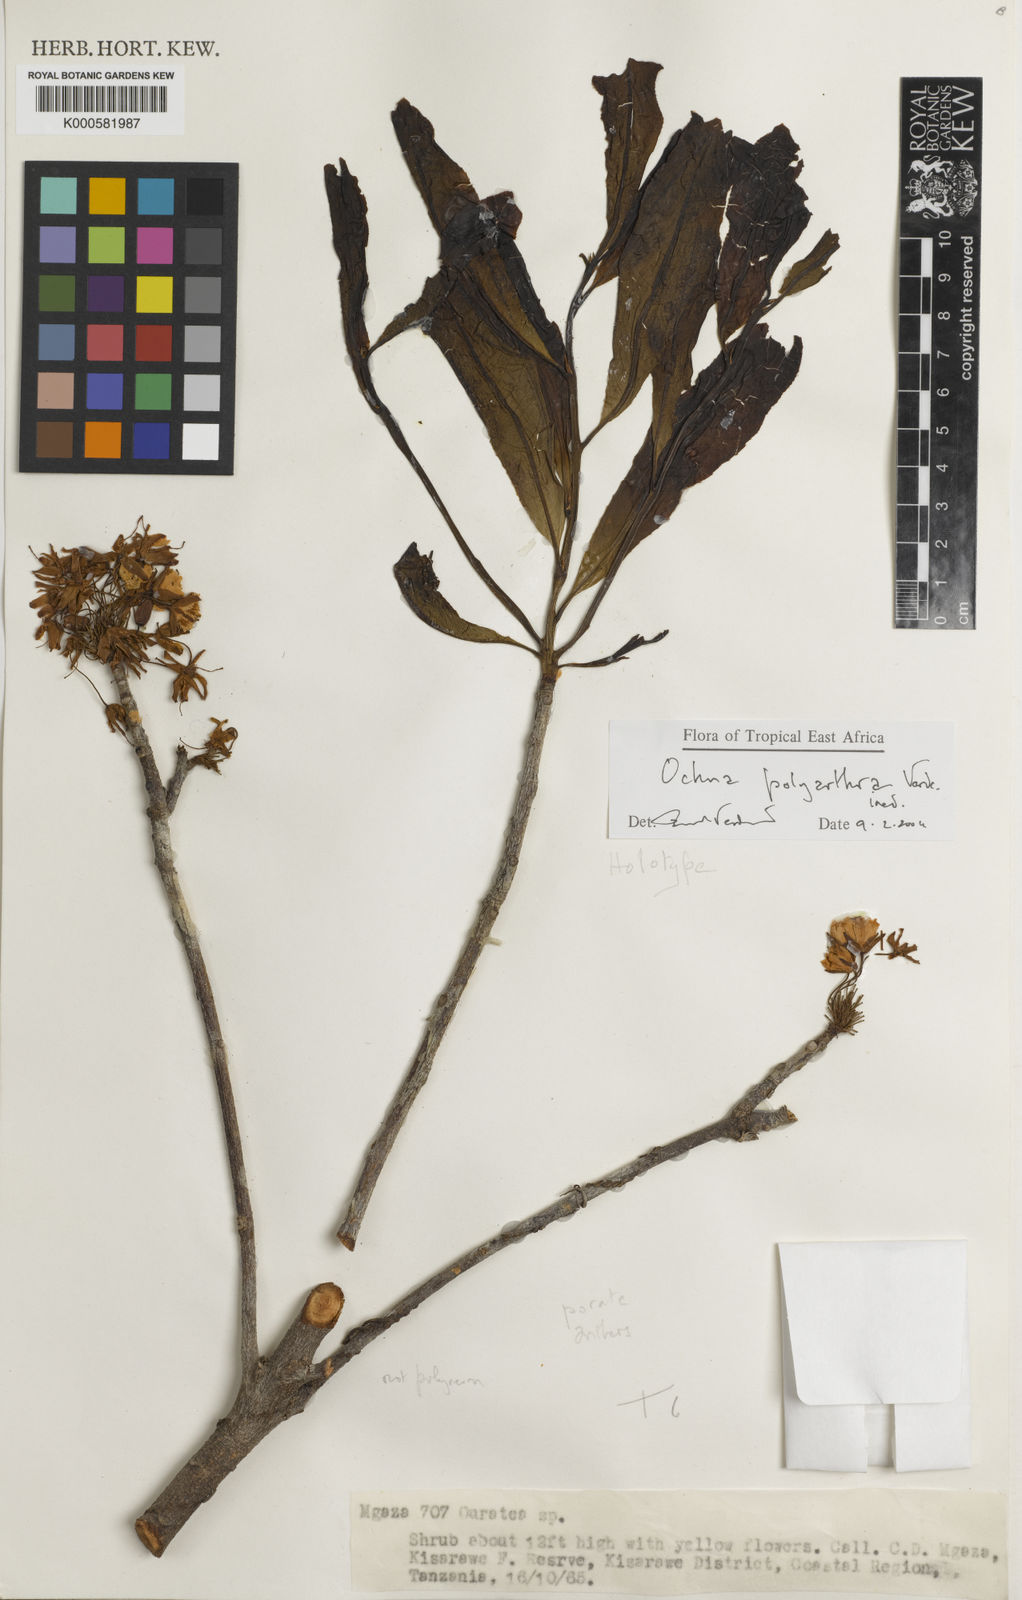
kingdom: Plantae
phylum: Tracheophyta
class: Magnoliopsida
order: Malpighiales
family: Ochnaceae
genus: Ochna
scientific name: Ochna polyarthra
